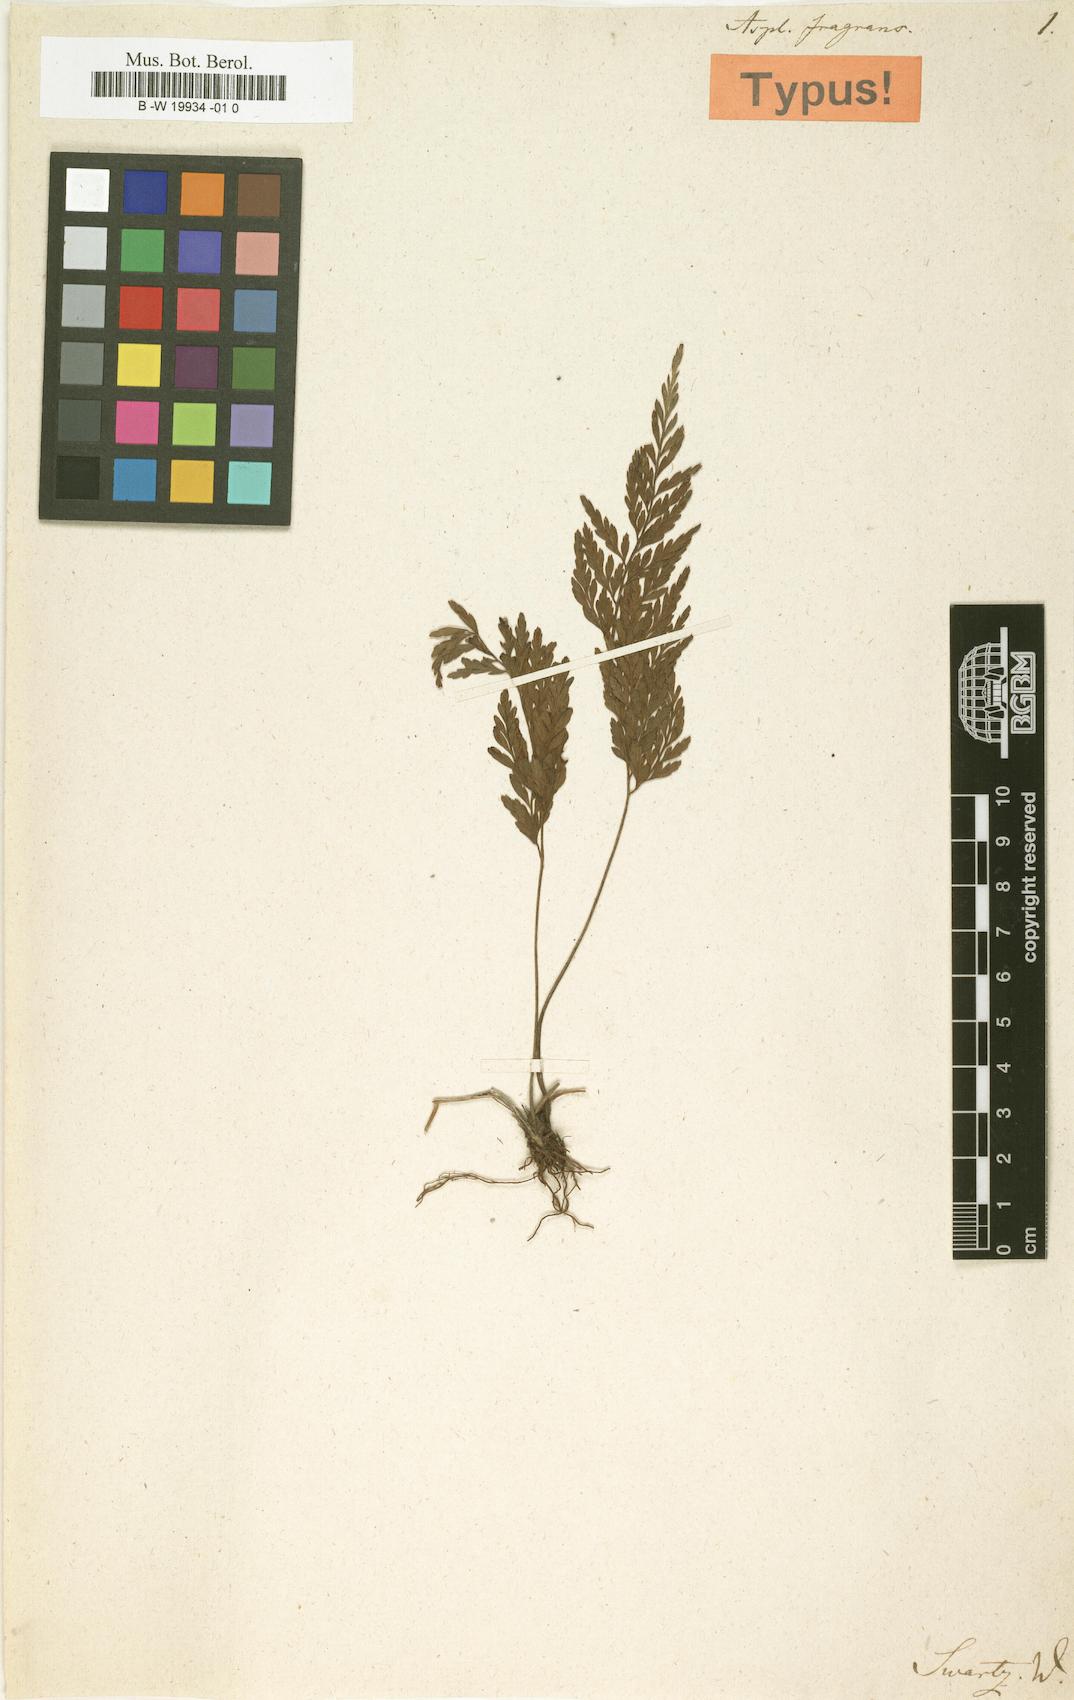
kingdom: Plantae
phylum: Tracheophyta
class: Polypodiopsida
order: Polypodiales
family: Aspleniaceae
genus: Asplenium
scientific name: Asplenium fragrans
